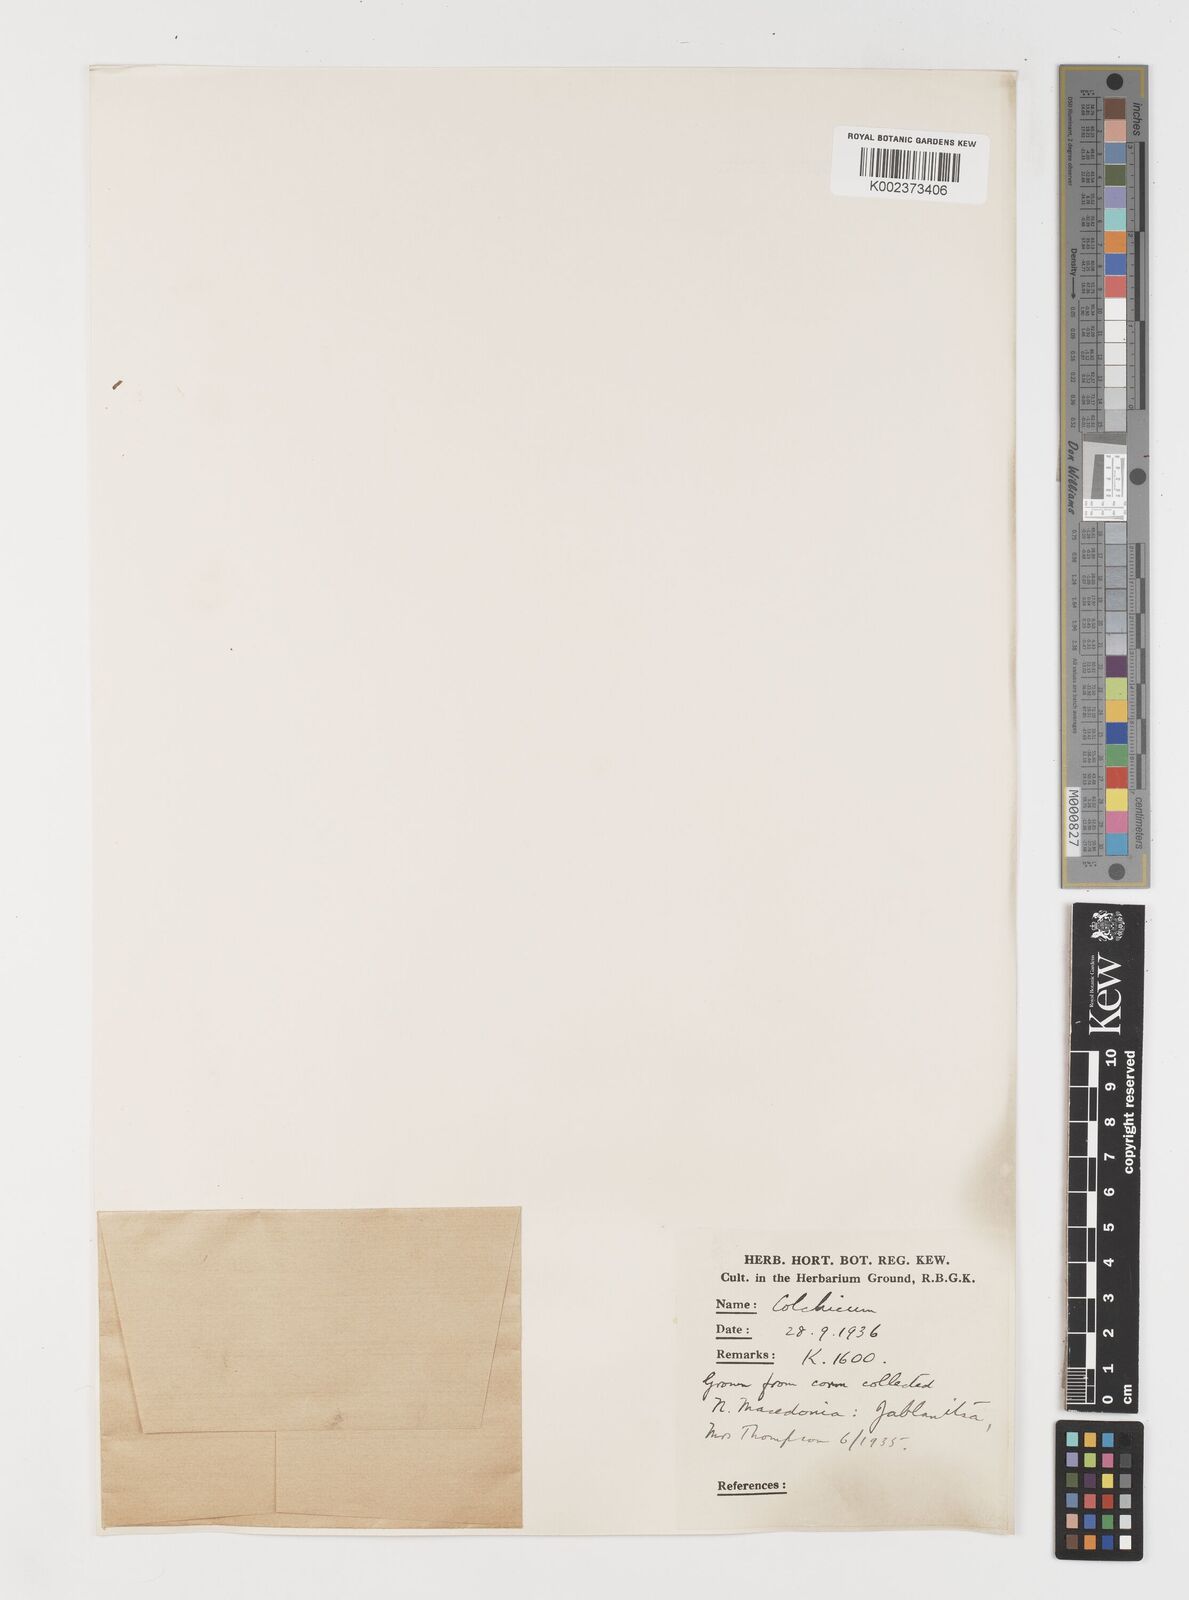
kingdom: Plantae
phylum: Tracheophyta
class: Liliopsida
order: Liliales
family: Colchicaceae
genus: Colchicum
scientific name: Colchicum
